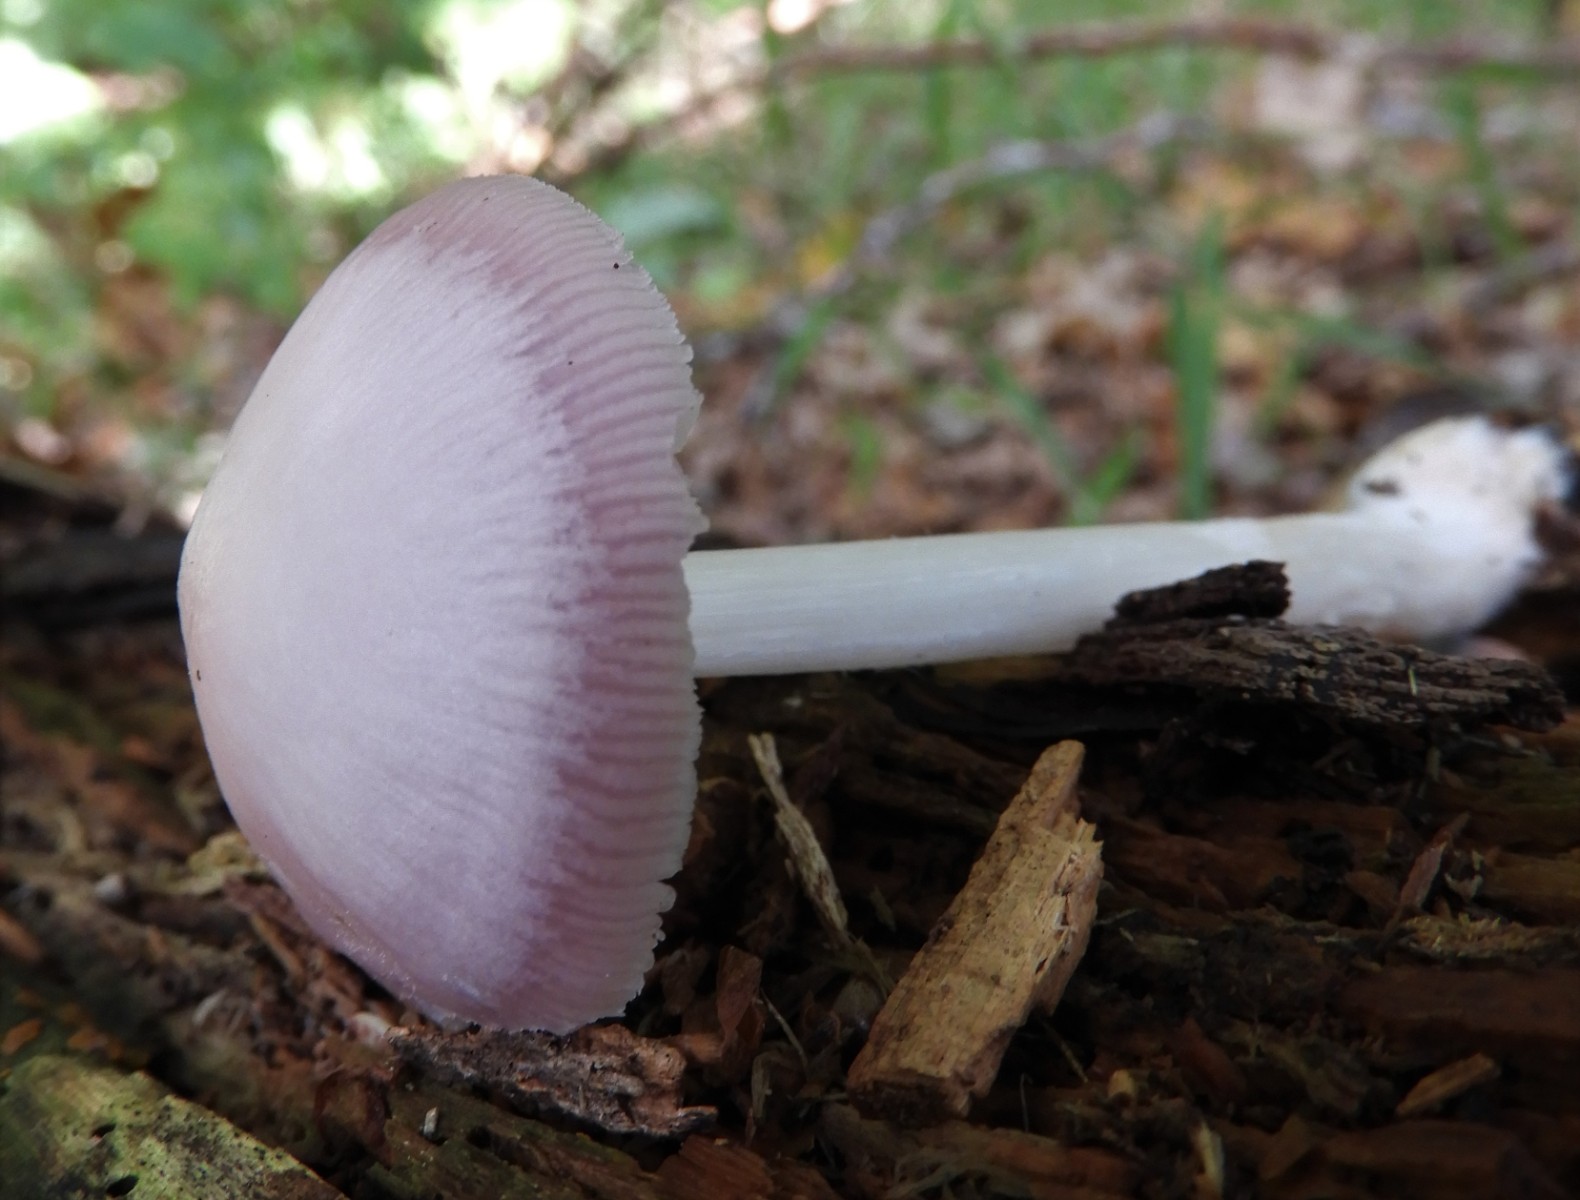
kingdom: Fungi
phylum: Basidiomycota
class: Agaricomycetes
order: Agaricales
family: Mycenaceae
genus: Mycena
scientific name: Mycena rosea
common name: rosa huesvamp
